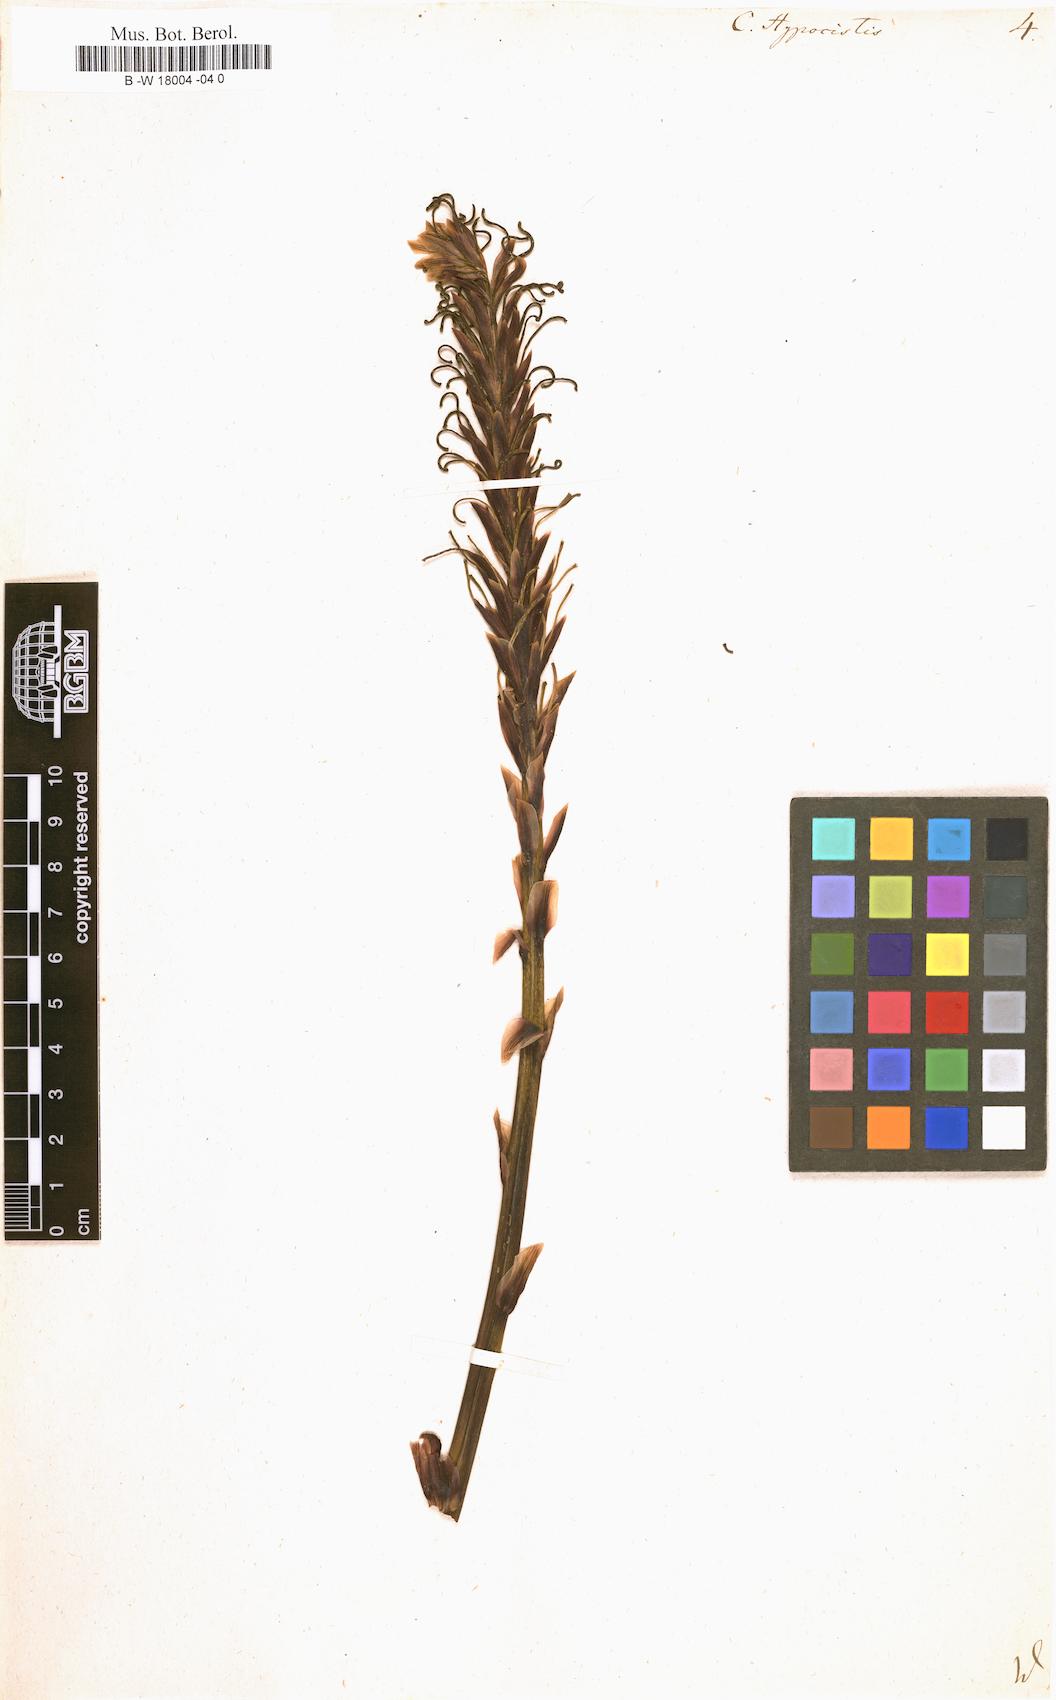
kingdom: Plantae
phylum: Tracheophyta
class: Magnoliopsida
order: Malvales
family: Cytinaceae
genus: Cytinus
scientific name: Cytinus hypocistis
